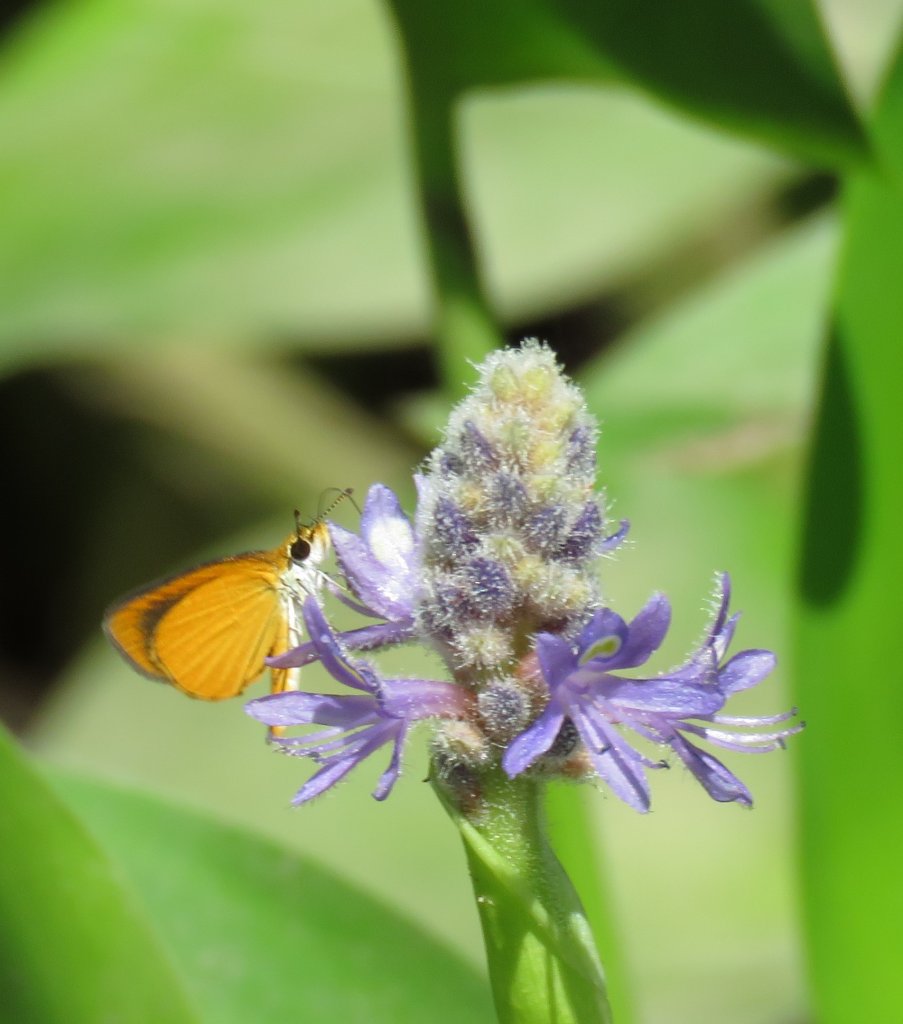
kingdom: Animalia
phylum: Arthropoda
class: Insecta
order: Lepidoptera
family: Hesperiidae
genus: Ancyloxypha
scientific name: Ancyloxypha numitor
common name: Least Skipper
